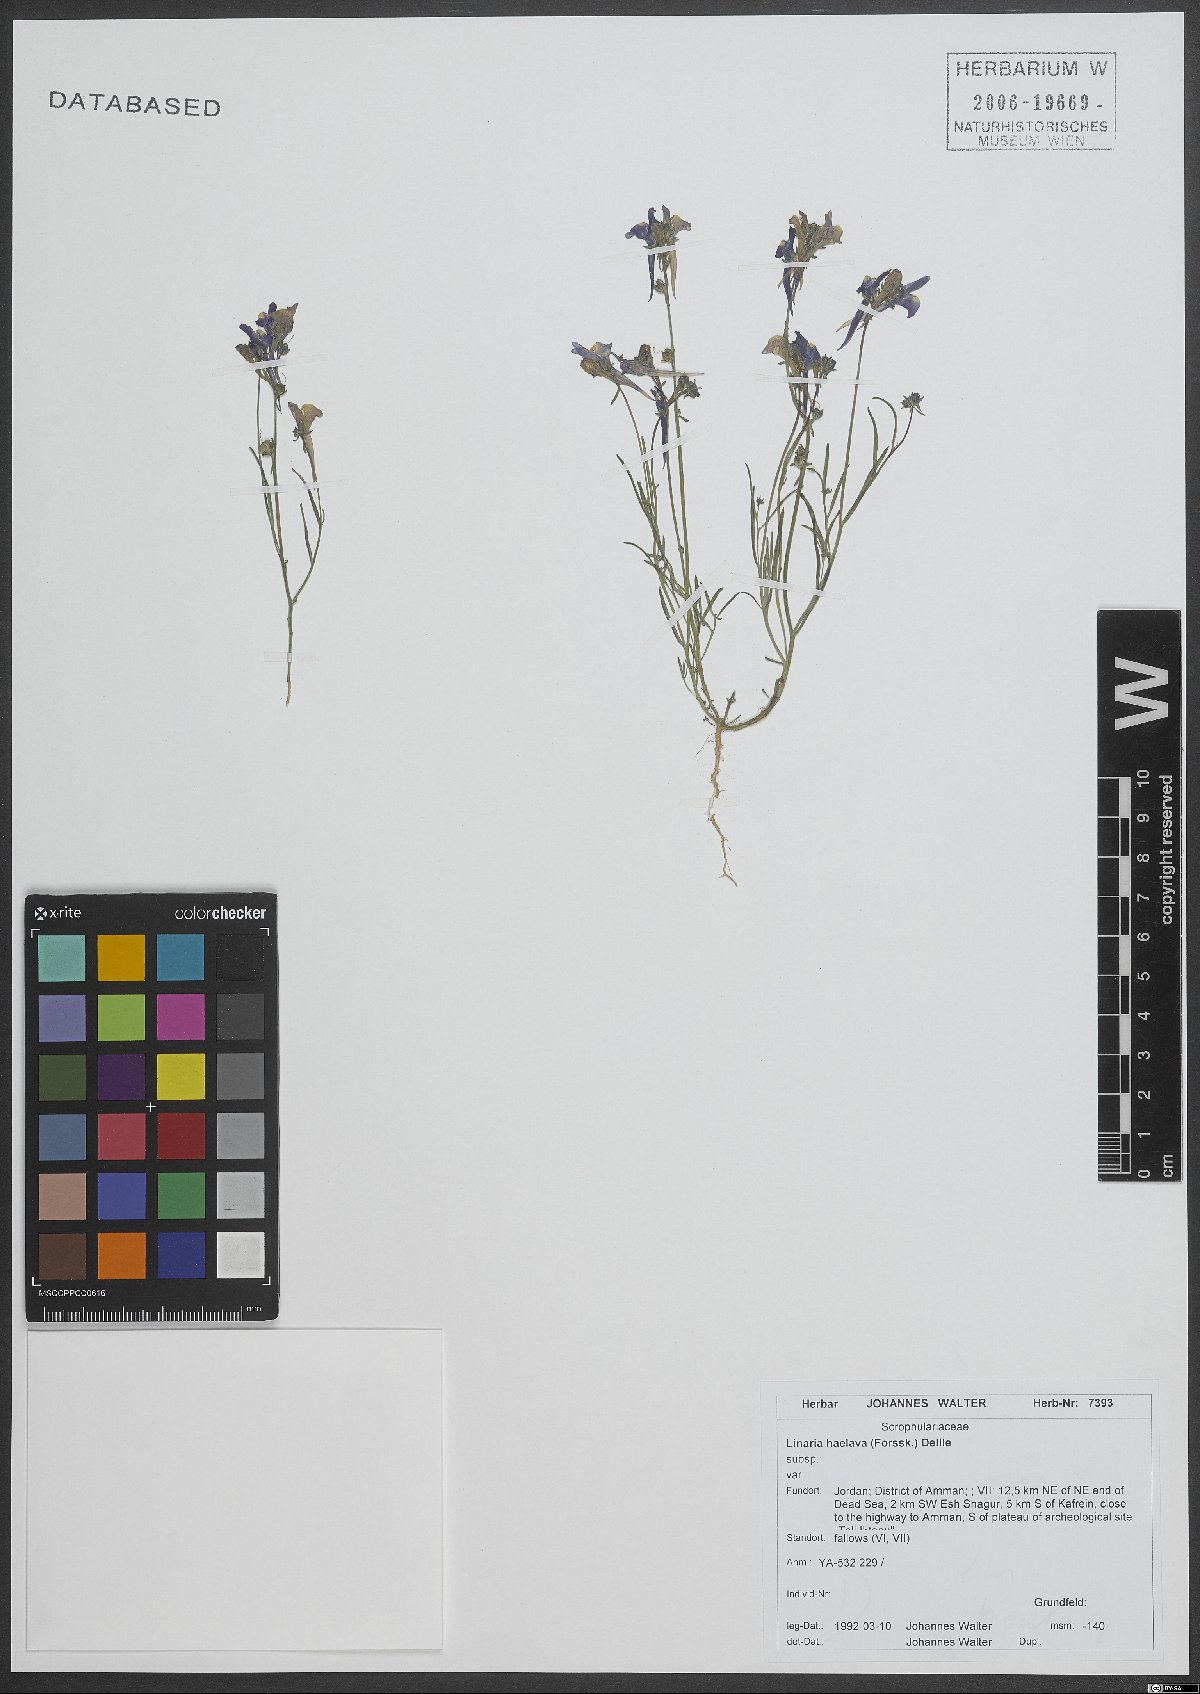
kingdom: Plantae
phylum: Tracheophyta
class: Magnoliopsida
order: Lamiales
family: Plantaginaceae
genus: Linaria
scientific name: Linaria haelava
